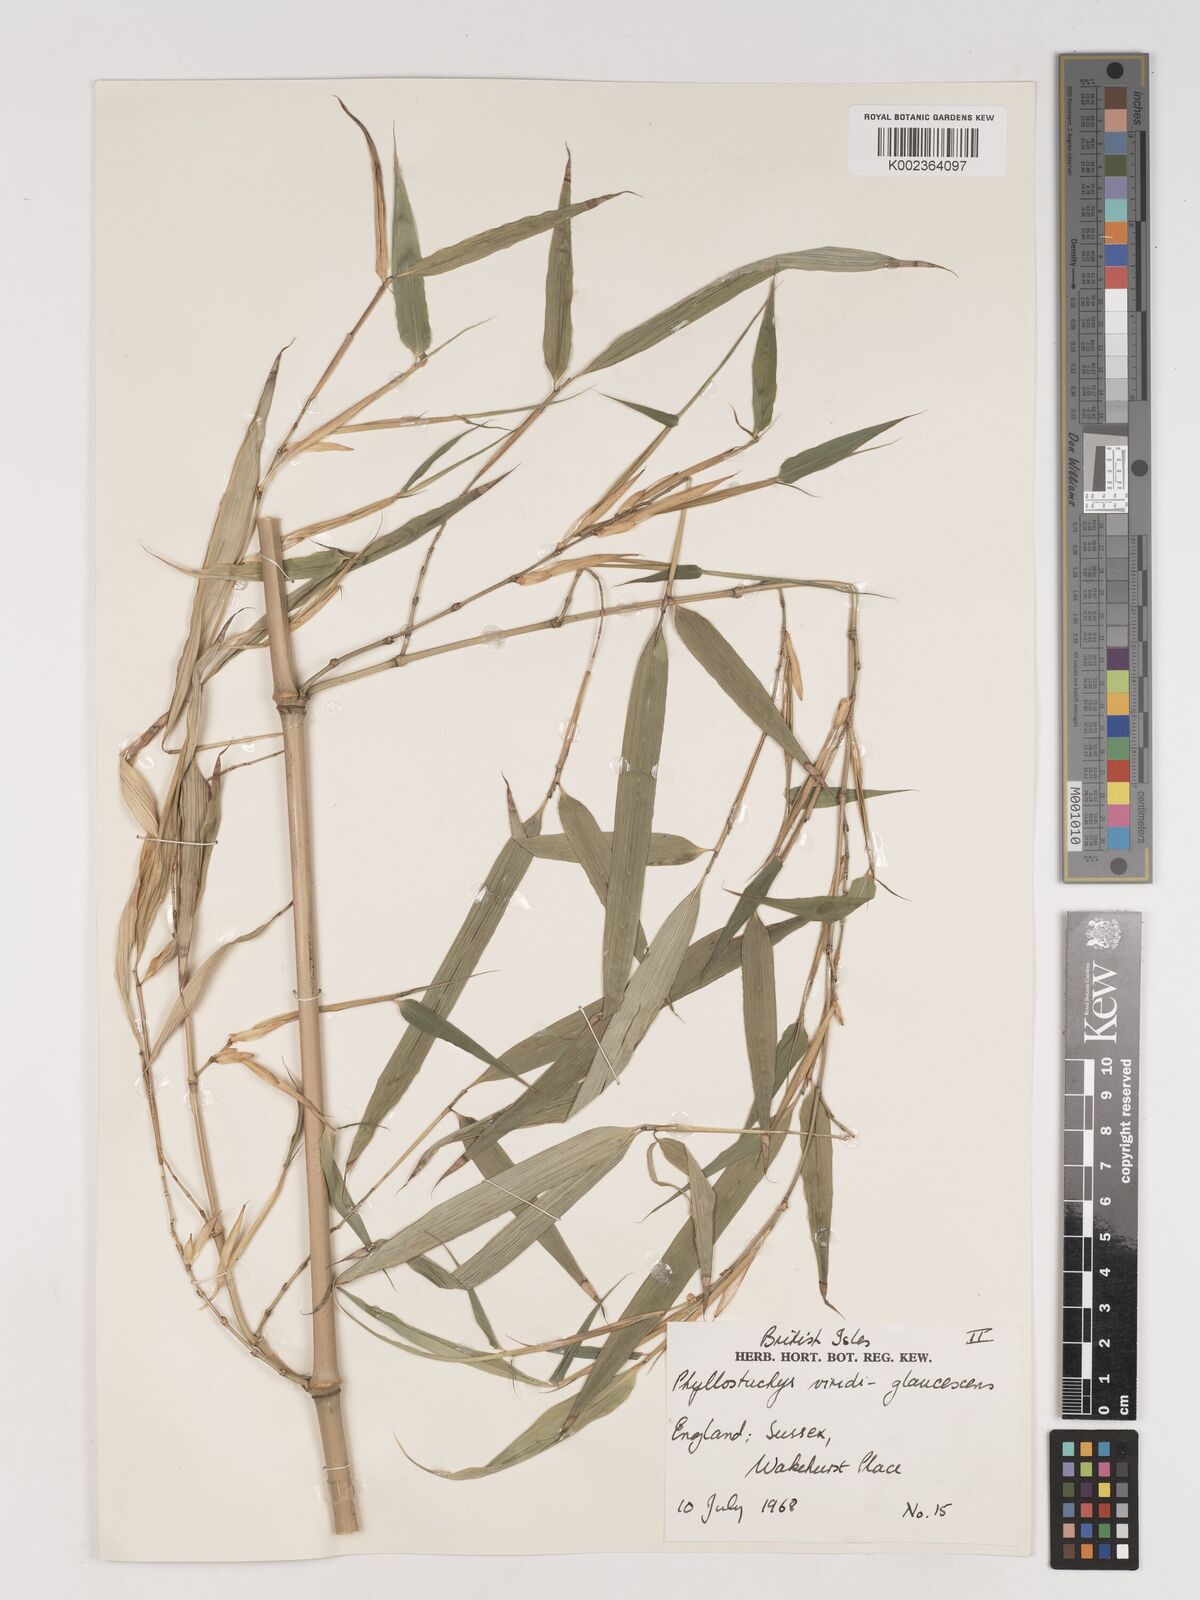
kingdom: Plantae
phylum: Tracheophyta
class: Liliopsida
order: Poales
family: Poaceae
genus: Phyllostachys
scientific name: Phyllostachys viridiglaucescens
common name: Greenwax golden bamboo
